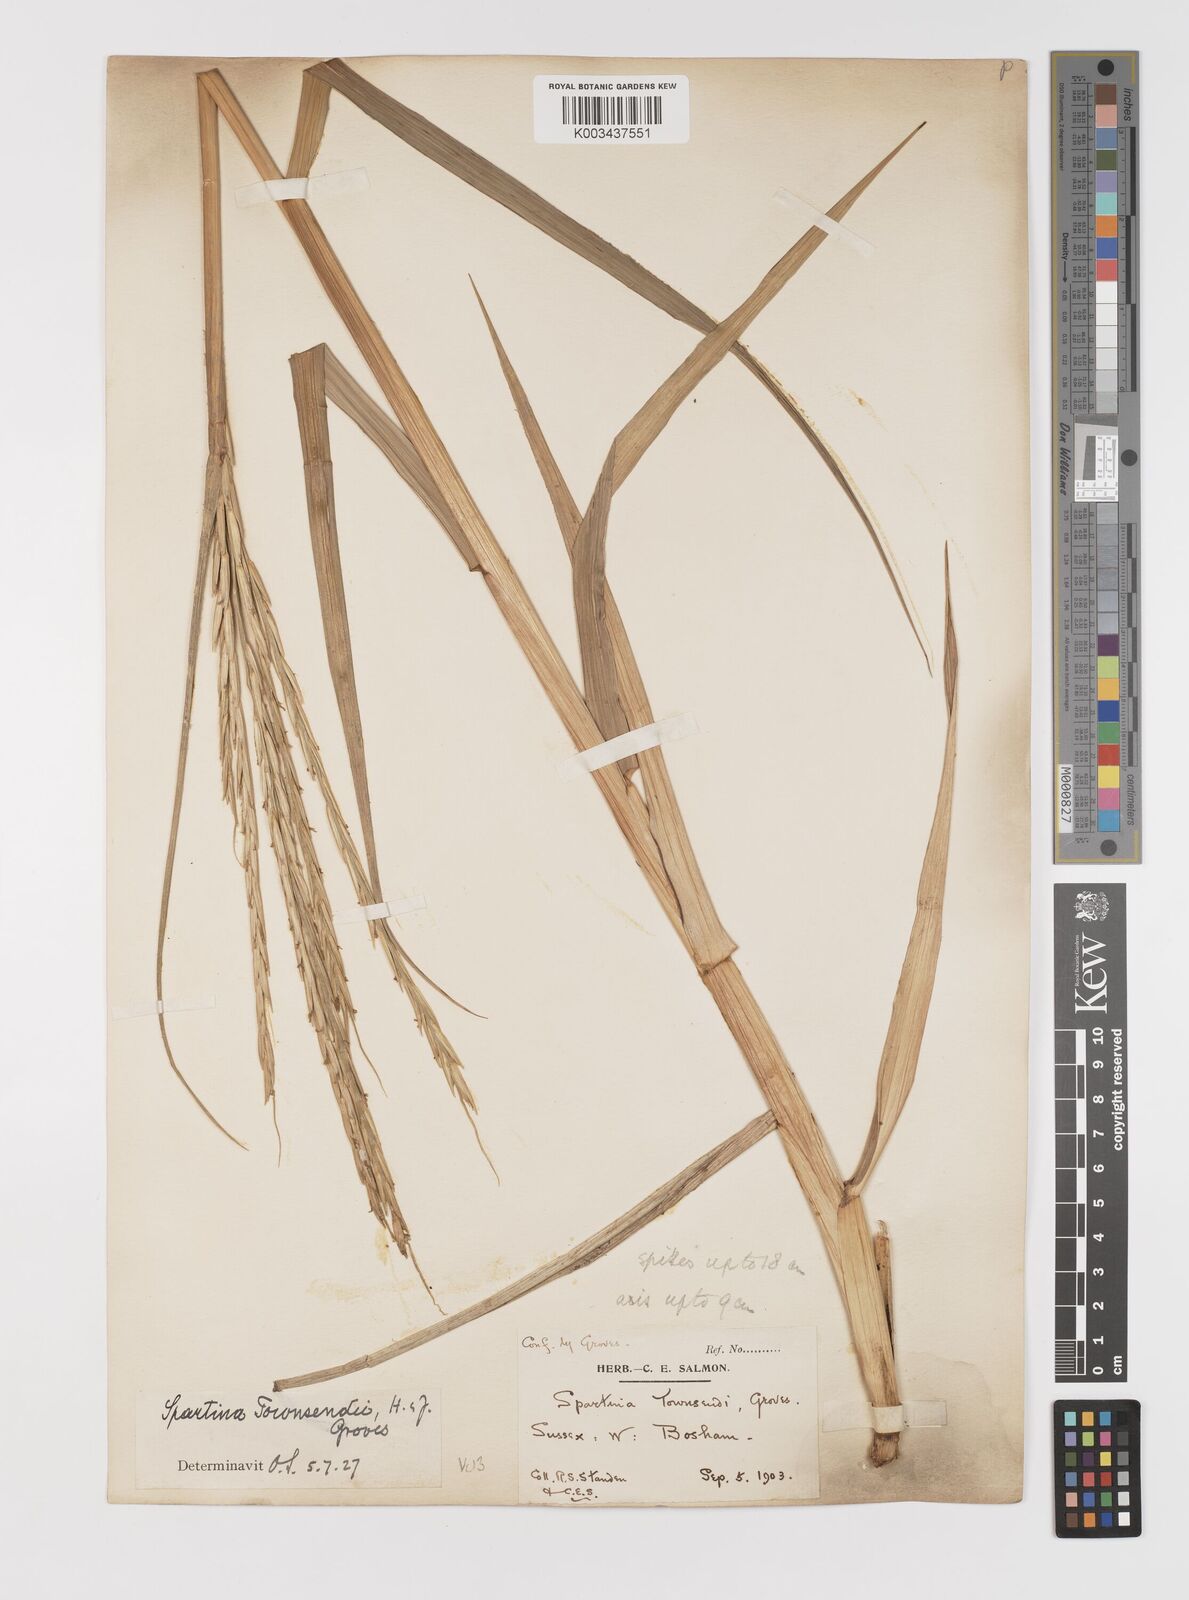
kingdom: Plantae
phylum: Tracheophyta
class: Liliopsida
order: Poales
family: Poaceae
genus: Sporobolus
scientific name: Sporobolus anglicus
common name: English cordgrass
